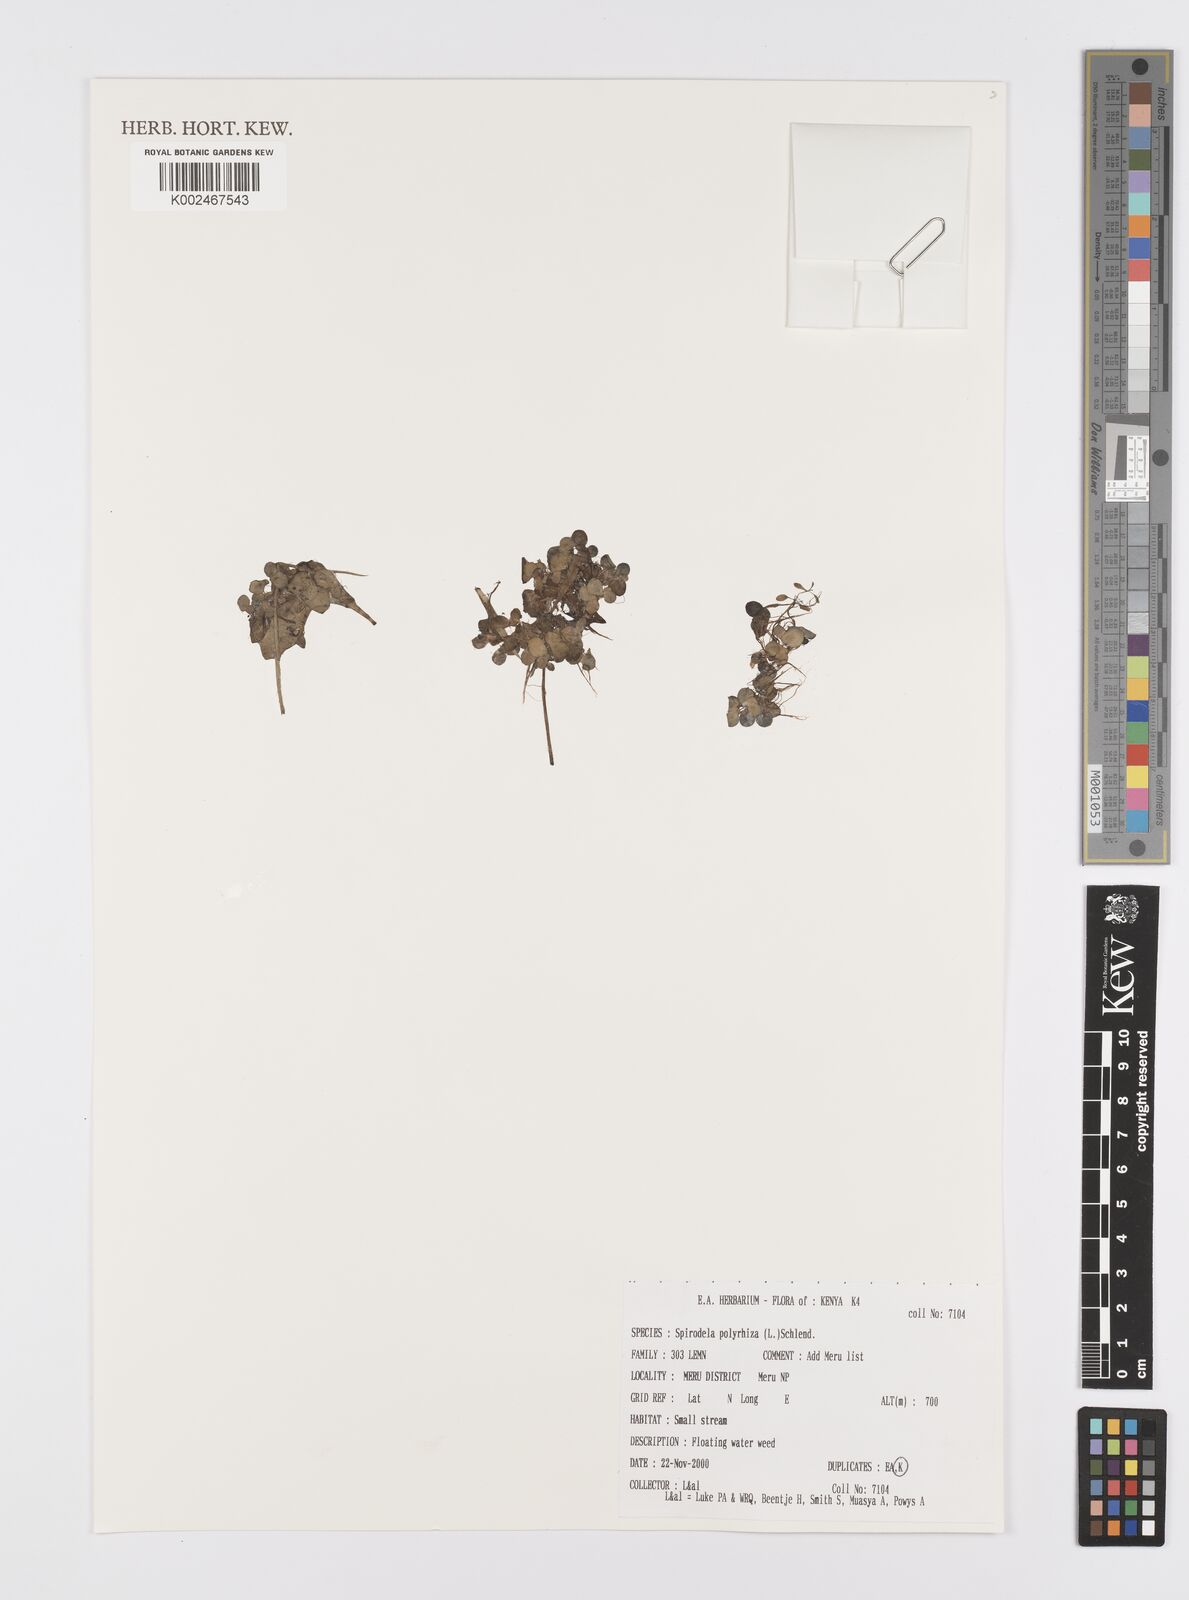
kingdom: Plantae
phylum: Tracheophyta
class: Liliopsida
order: Alismatales
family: Araceae
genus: Spirodela
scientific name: Spirodela polyrhiza
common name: Great duckweed
